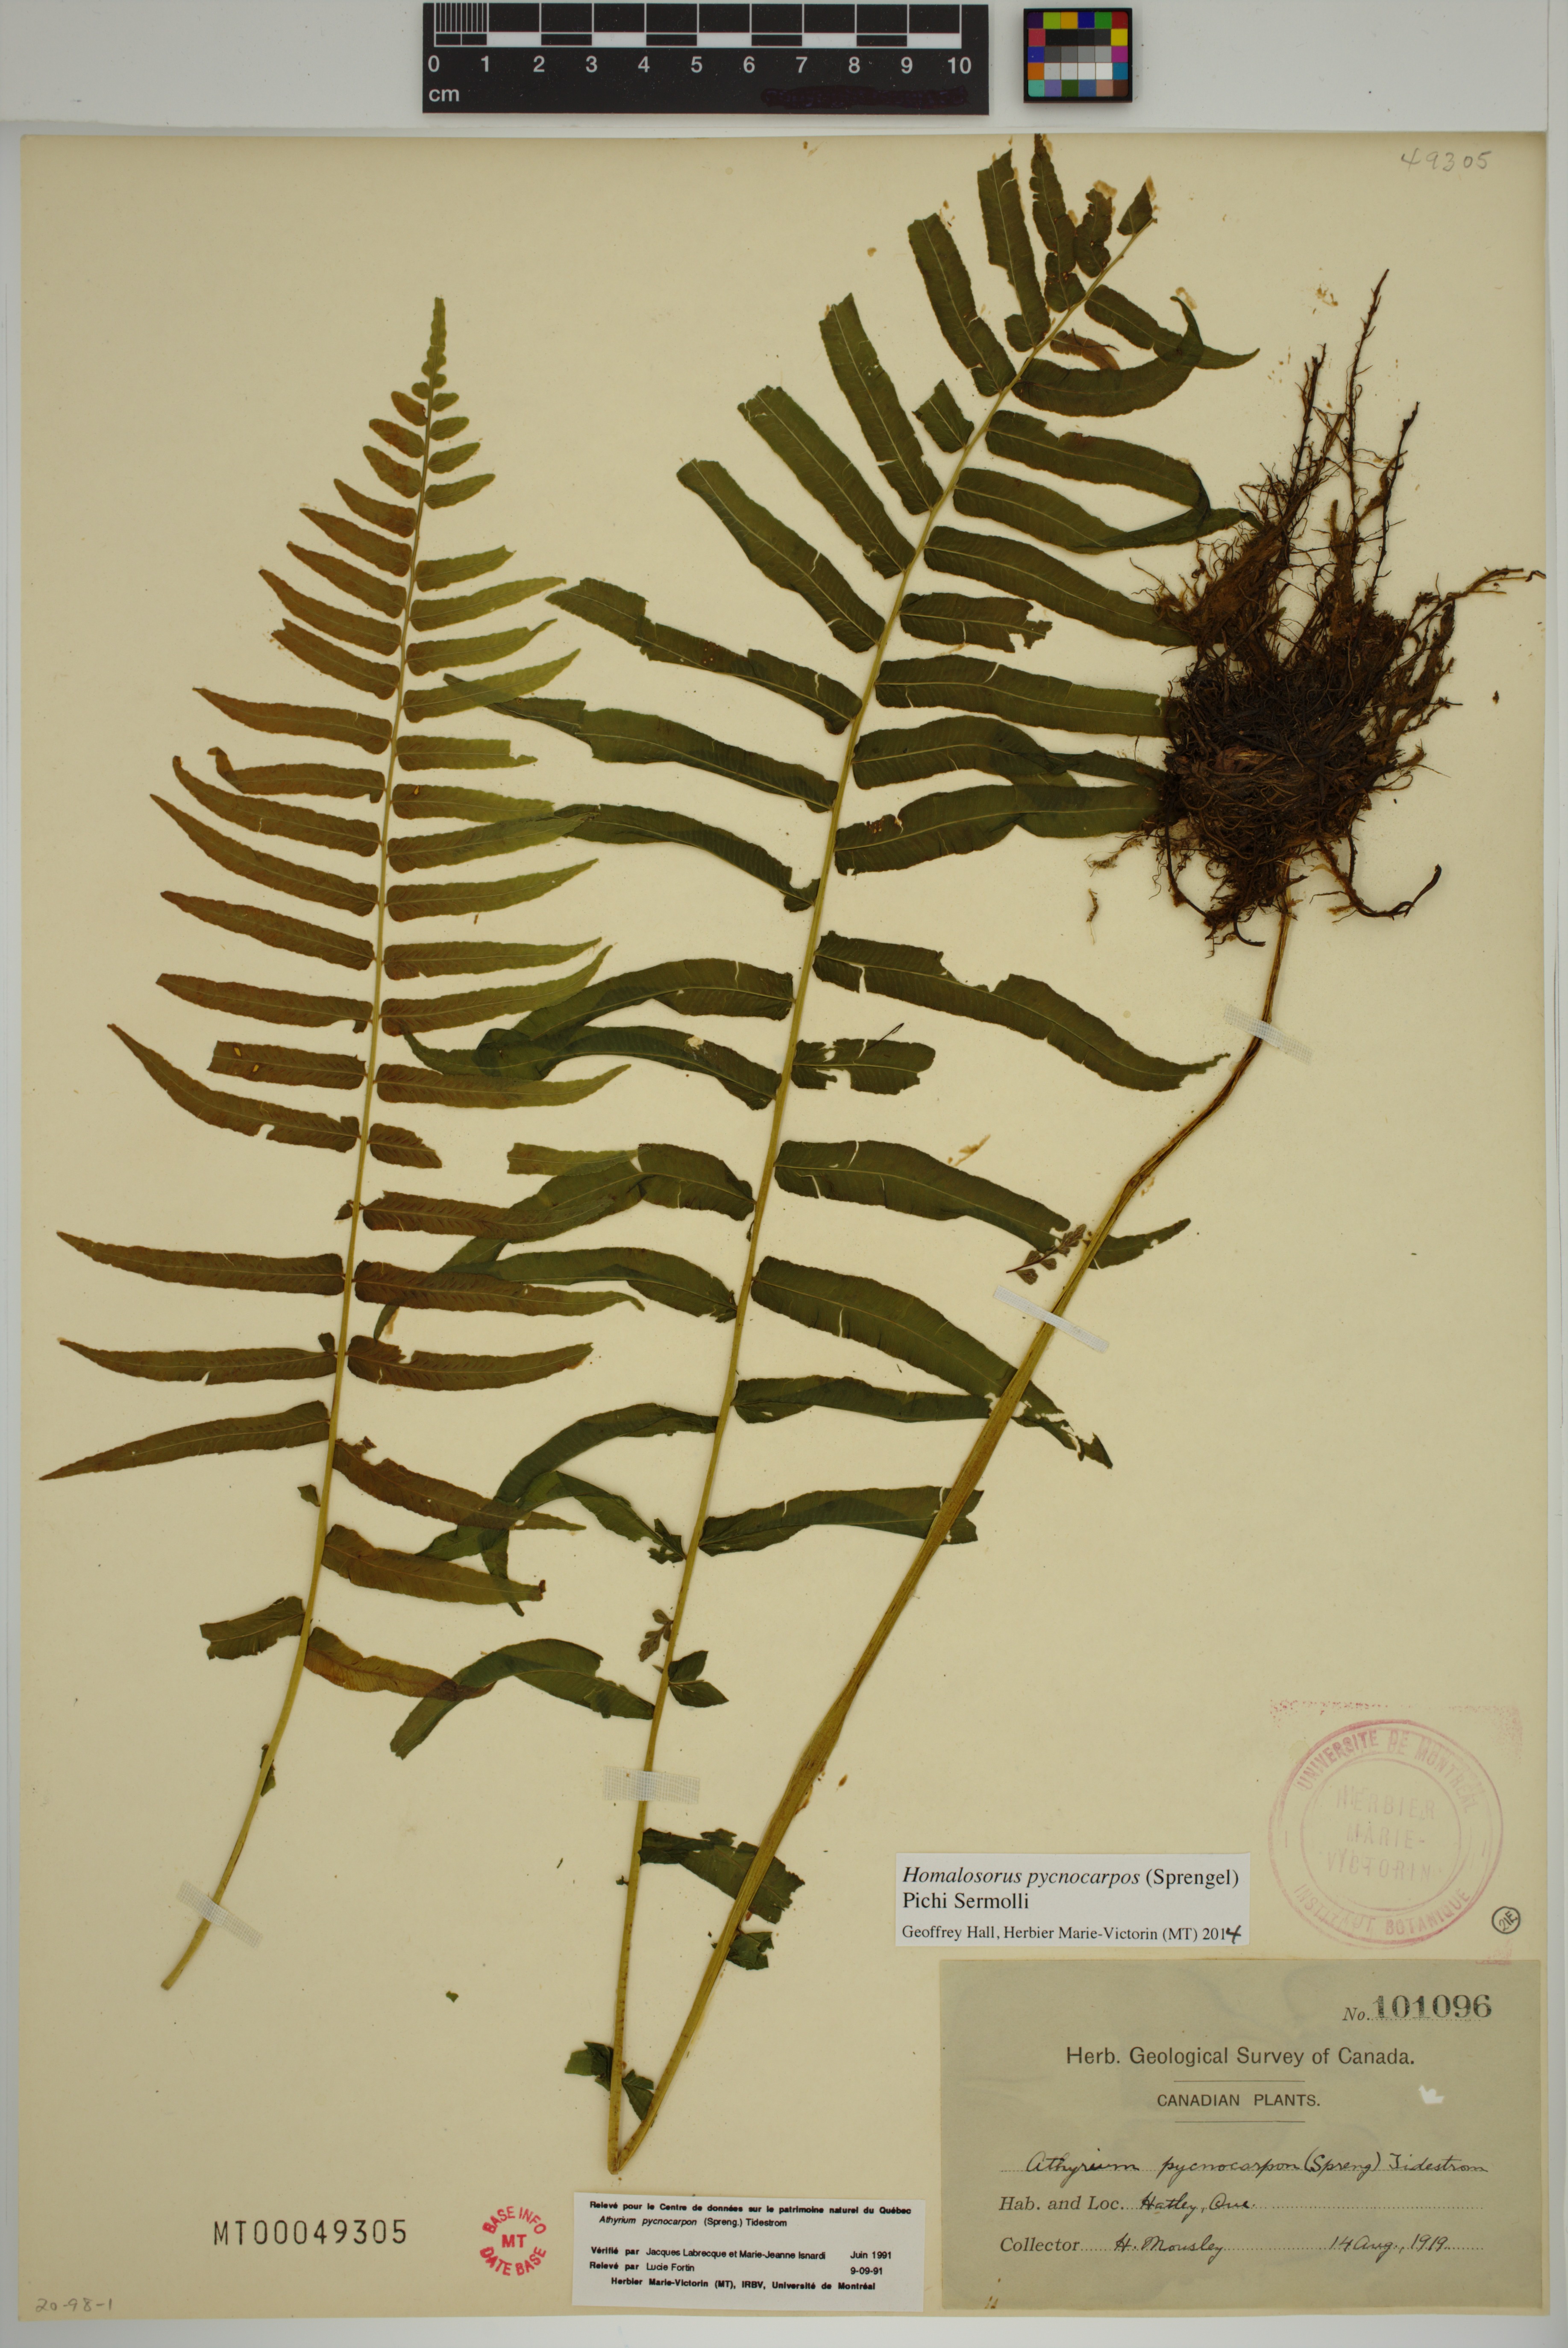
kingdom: Plantae
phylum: Tracheophyta
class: Polypodiopsida
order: Polypodiales
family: Diplaziopsidaceae
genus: Homalosorus
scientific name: Homalosorus pycnocarpos
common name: Glade fern
